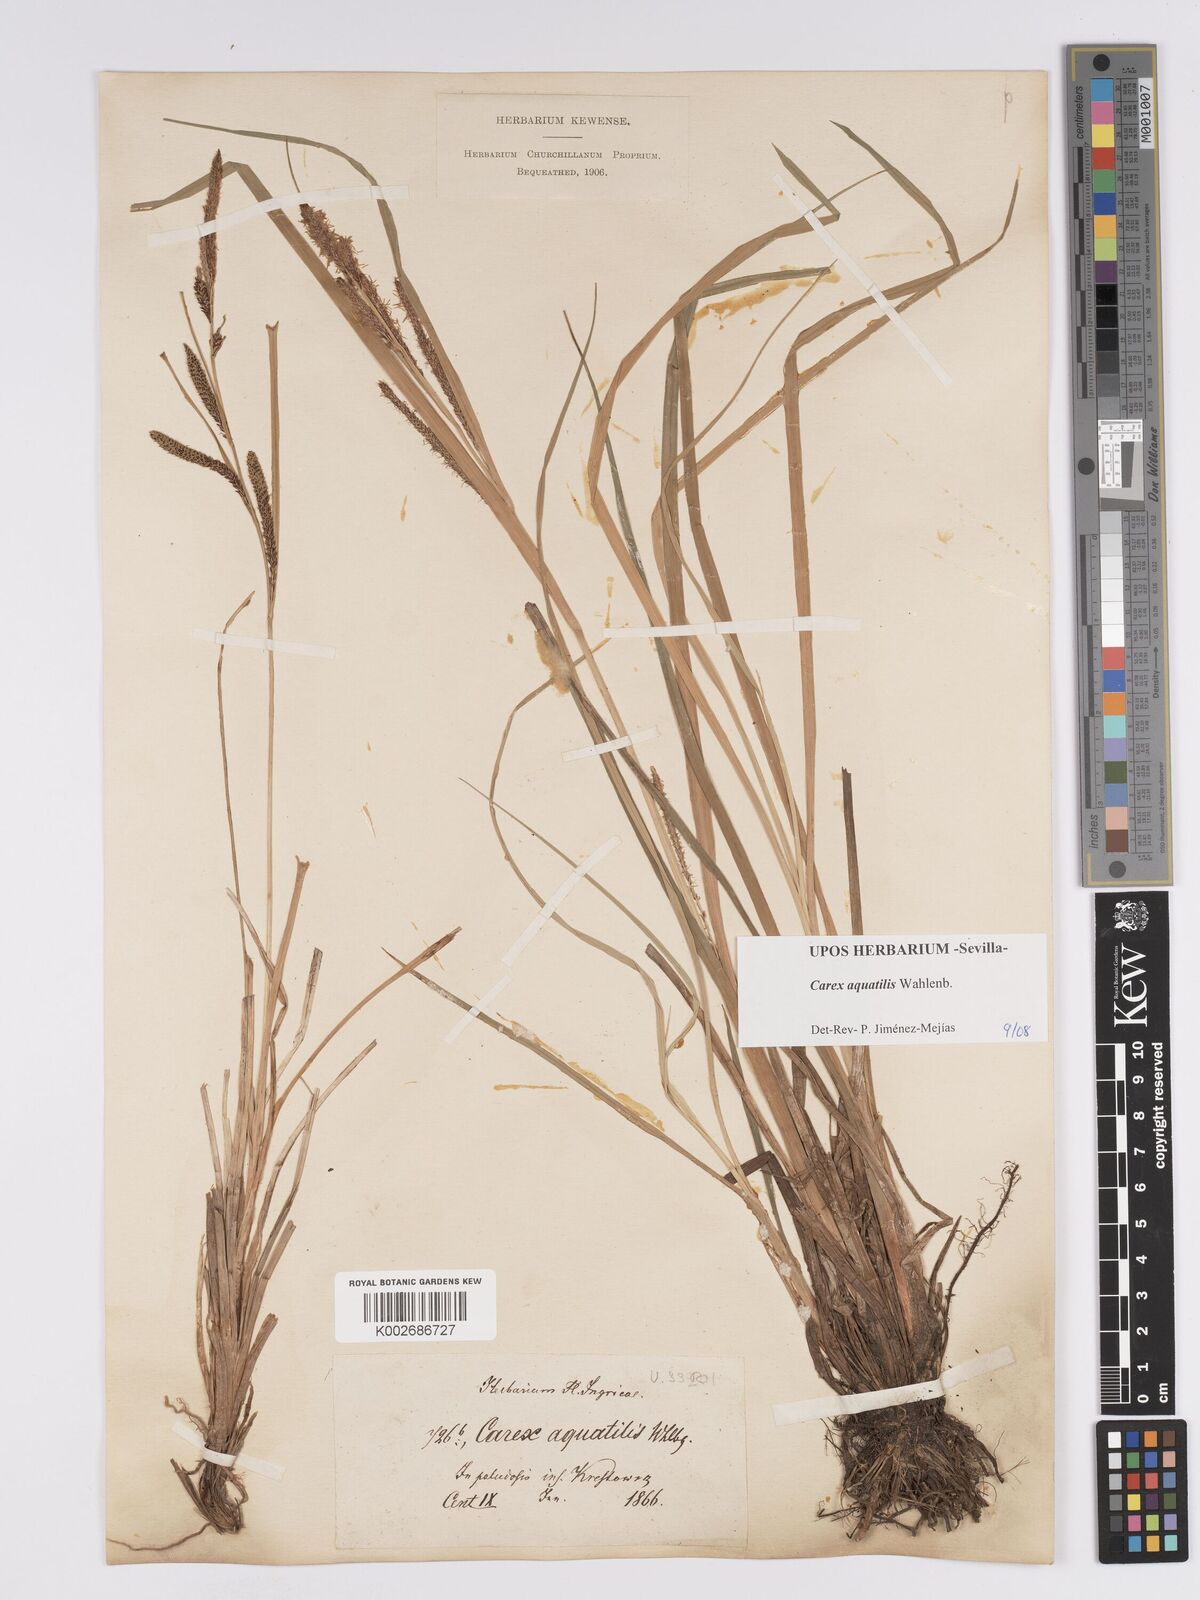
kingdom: Plantae
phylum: Tracheophyta
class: Liliopsida
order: Poales
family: Cyperaceae
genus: Carex
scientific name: Carex aquatilis
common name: Water sedge
